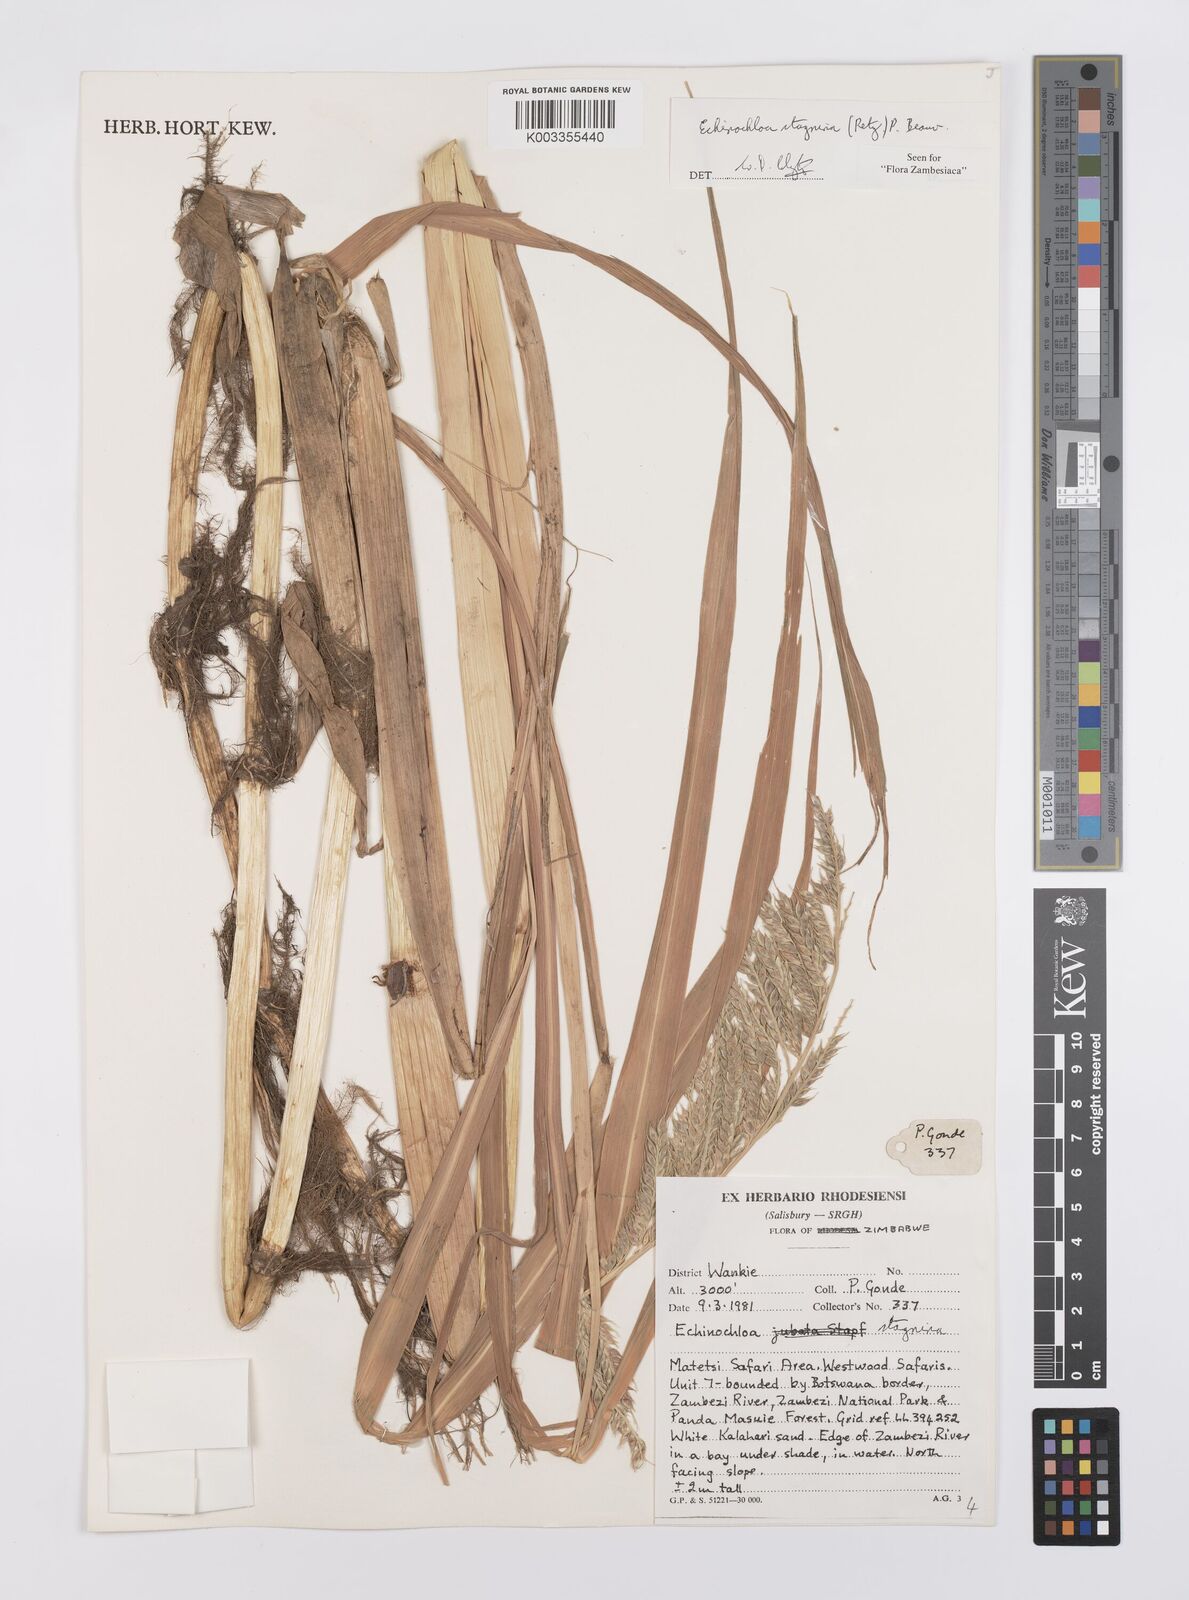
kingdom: Plantae
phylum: Tracheophyta
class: Liliopsida
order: Poales
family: Poaceae
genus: Echinochloa
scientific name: Echinochloa stagnina
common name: Burgu grass
